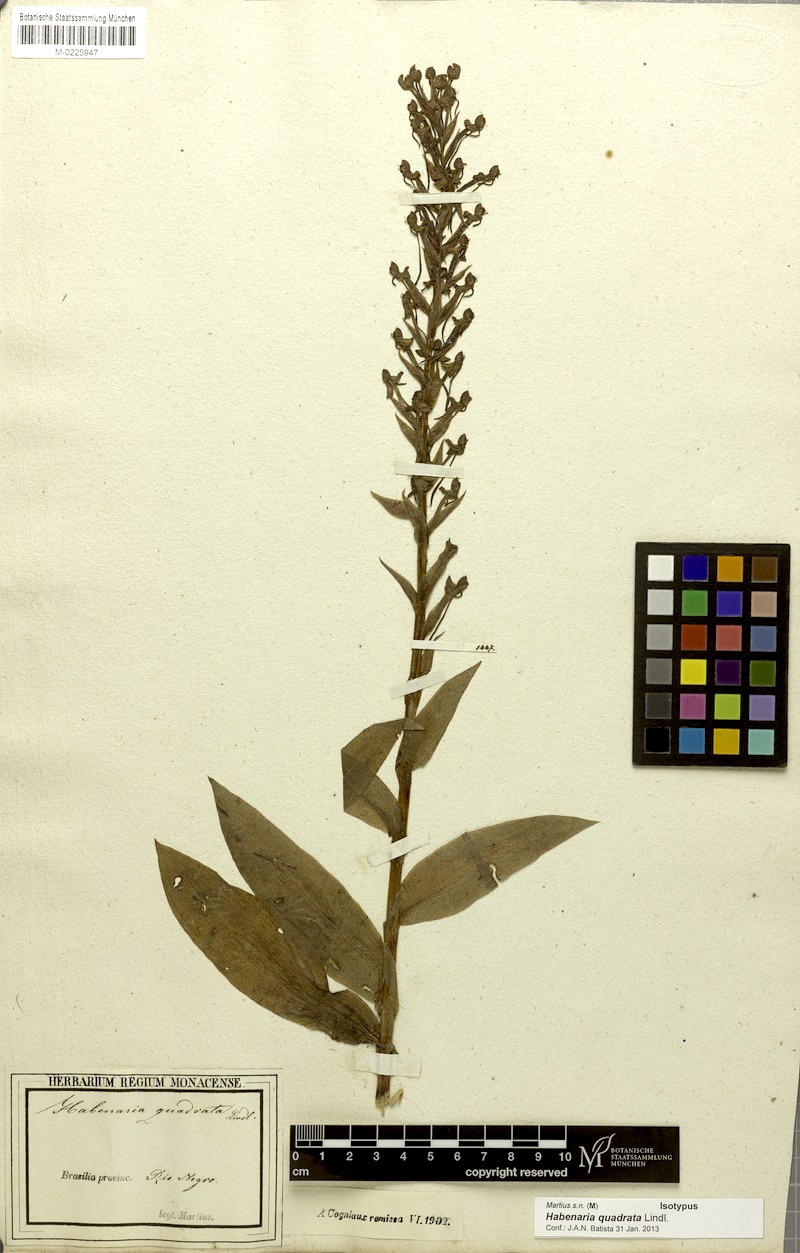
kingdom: Plantae
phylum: Tracheophyta
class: Liliopsida
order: Asparagales
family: Orchidaceae
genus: Habenaria
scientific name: Habenaria quadrata
